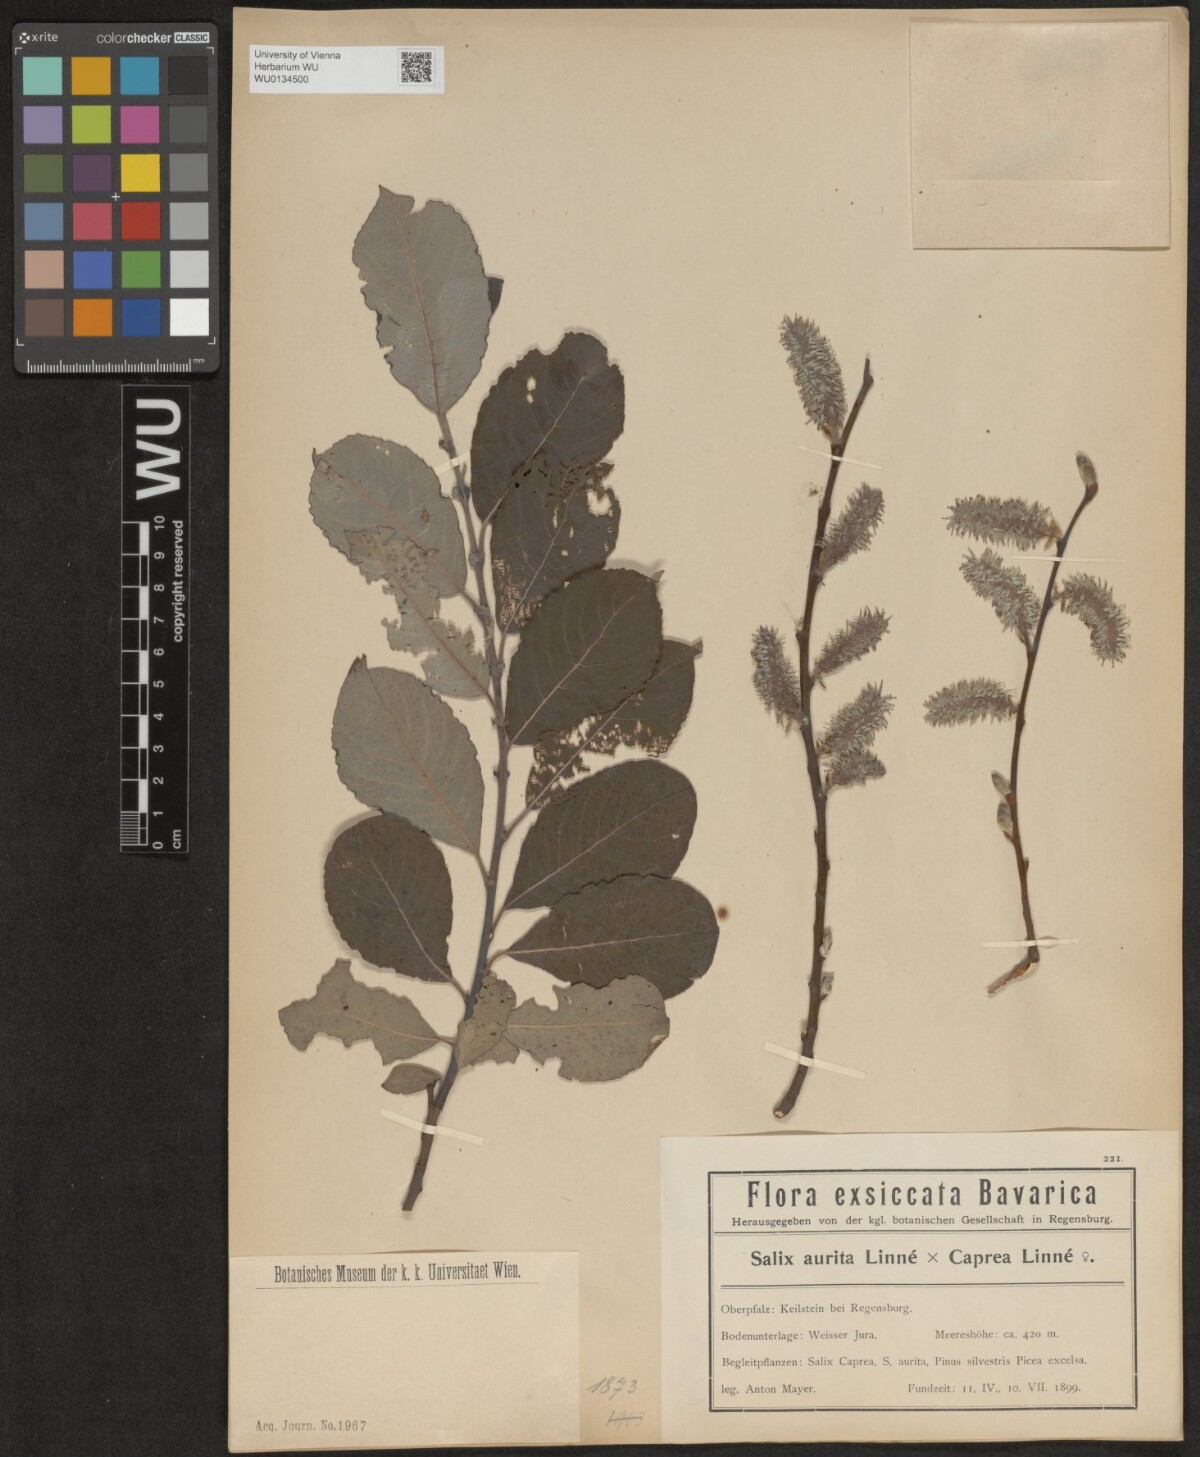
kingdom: Plantae
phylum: Tracheophyta
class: Magnoliopsida
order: Malpighiales
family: Salicaceae
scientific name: Salicaceae
